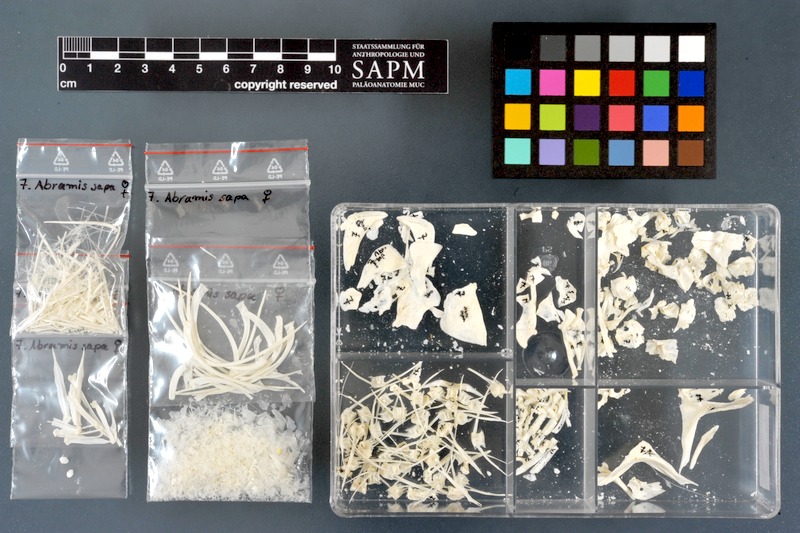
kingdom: Animalia
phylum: Chordata
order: Cypriniformes
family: Cyprinidae
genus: Ballerus
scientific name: Ballerus sapa
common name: White-eye bream
